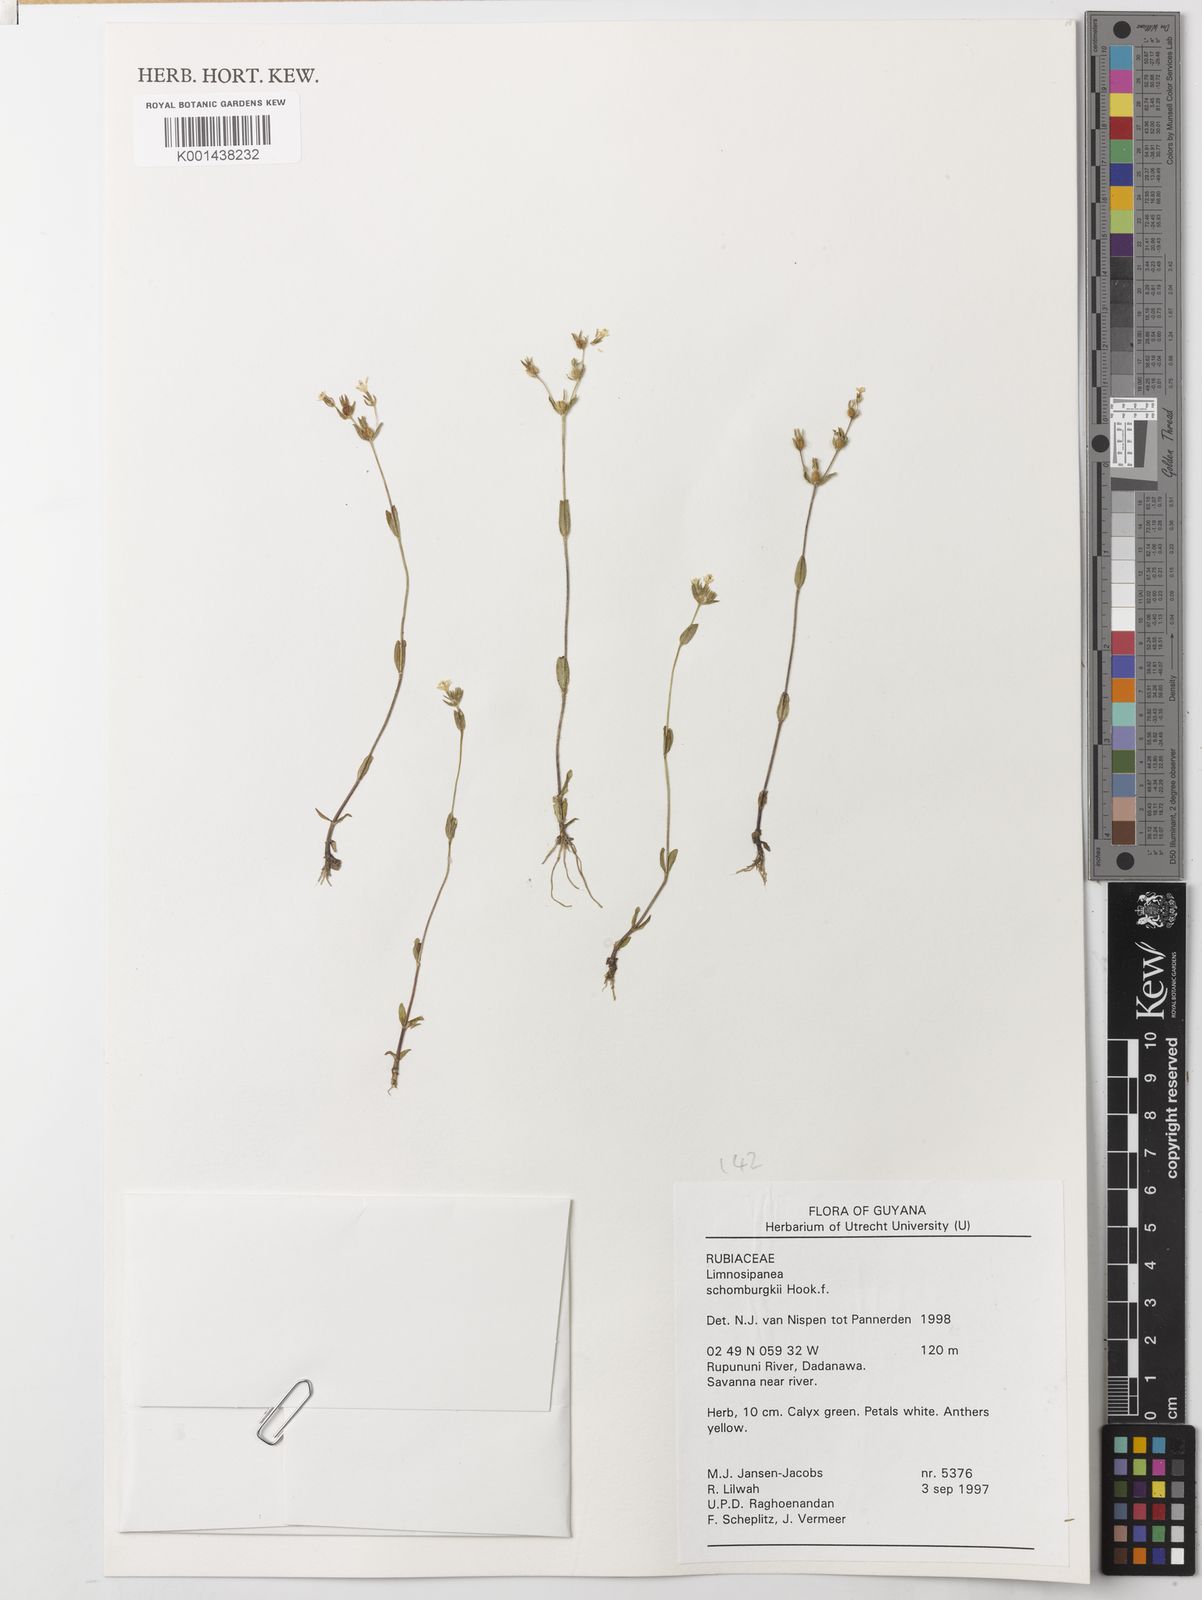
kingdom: Plantae
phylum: Tracheophyta
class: Magnoliopsida
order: Gentianales
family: Rubiaceae
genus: Limnosipanea
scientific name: Limnosipanea palustris
